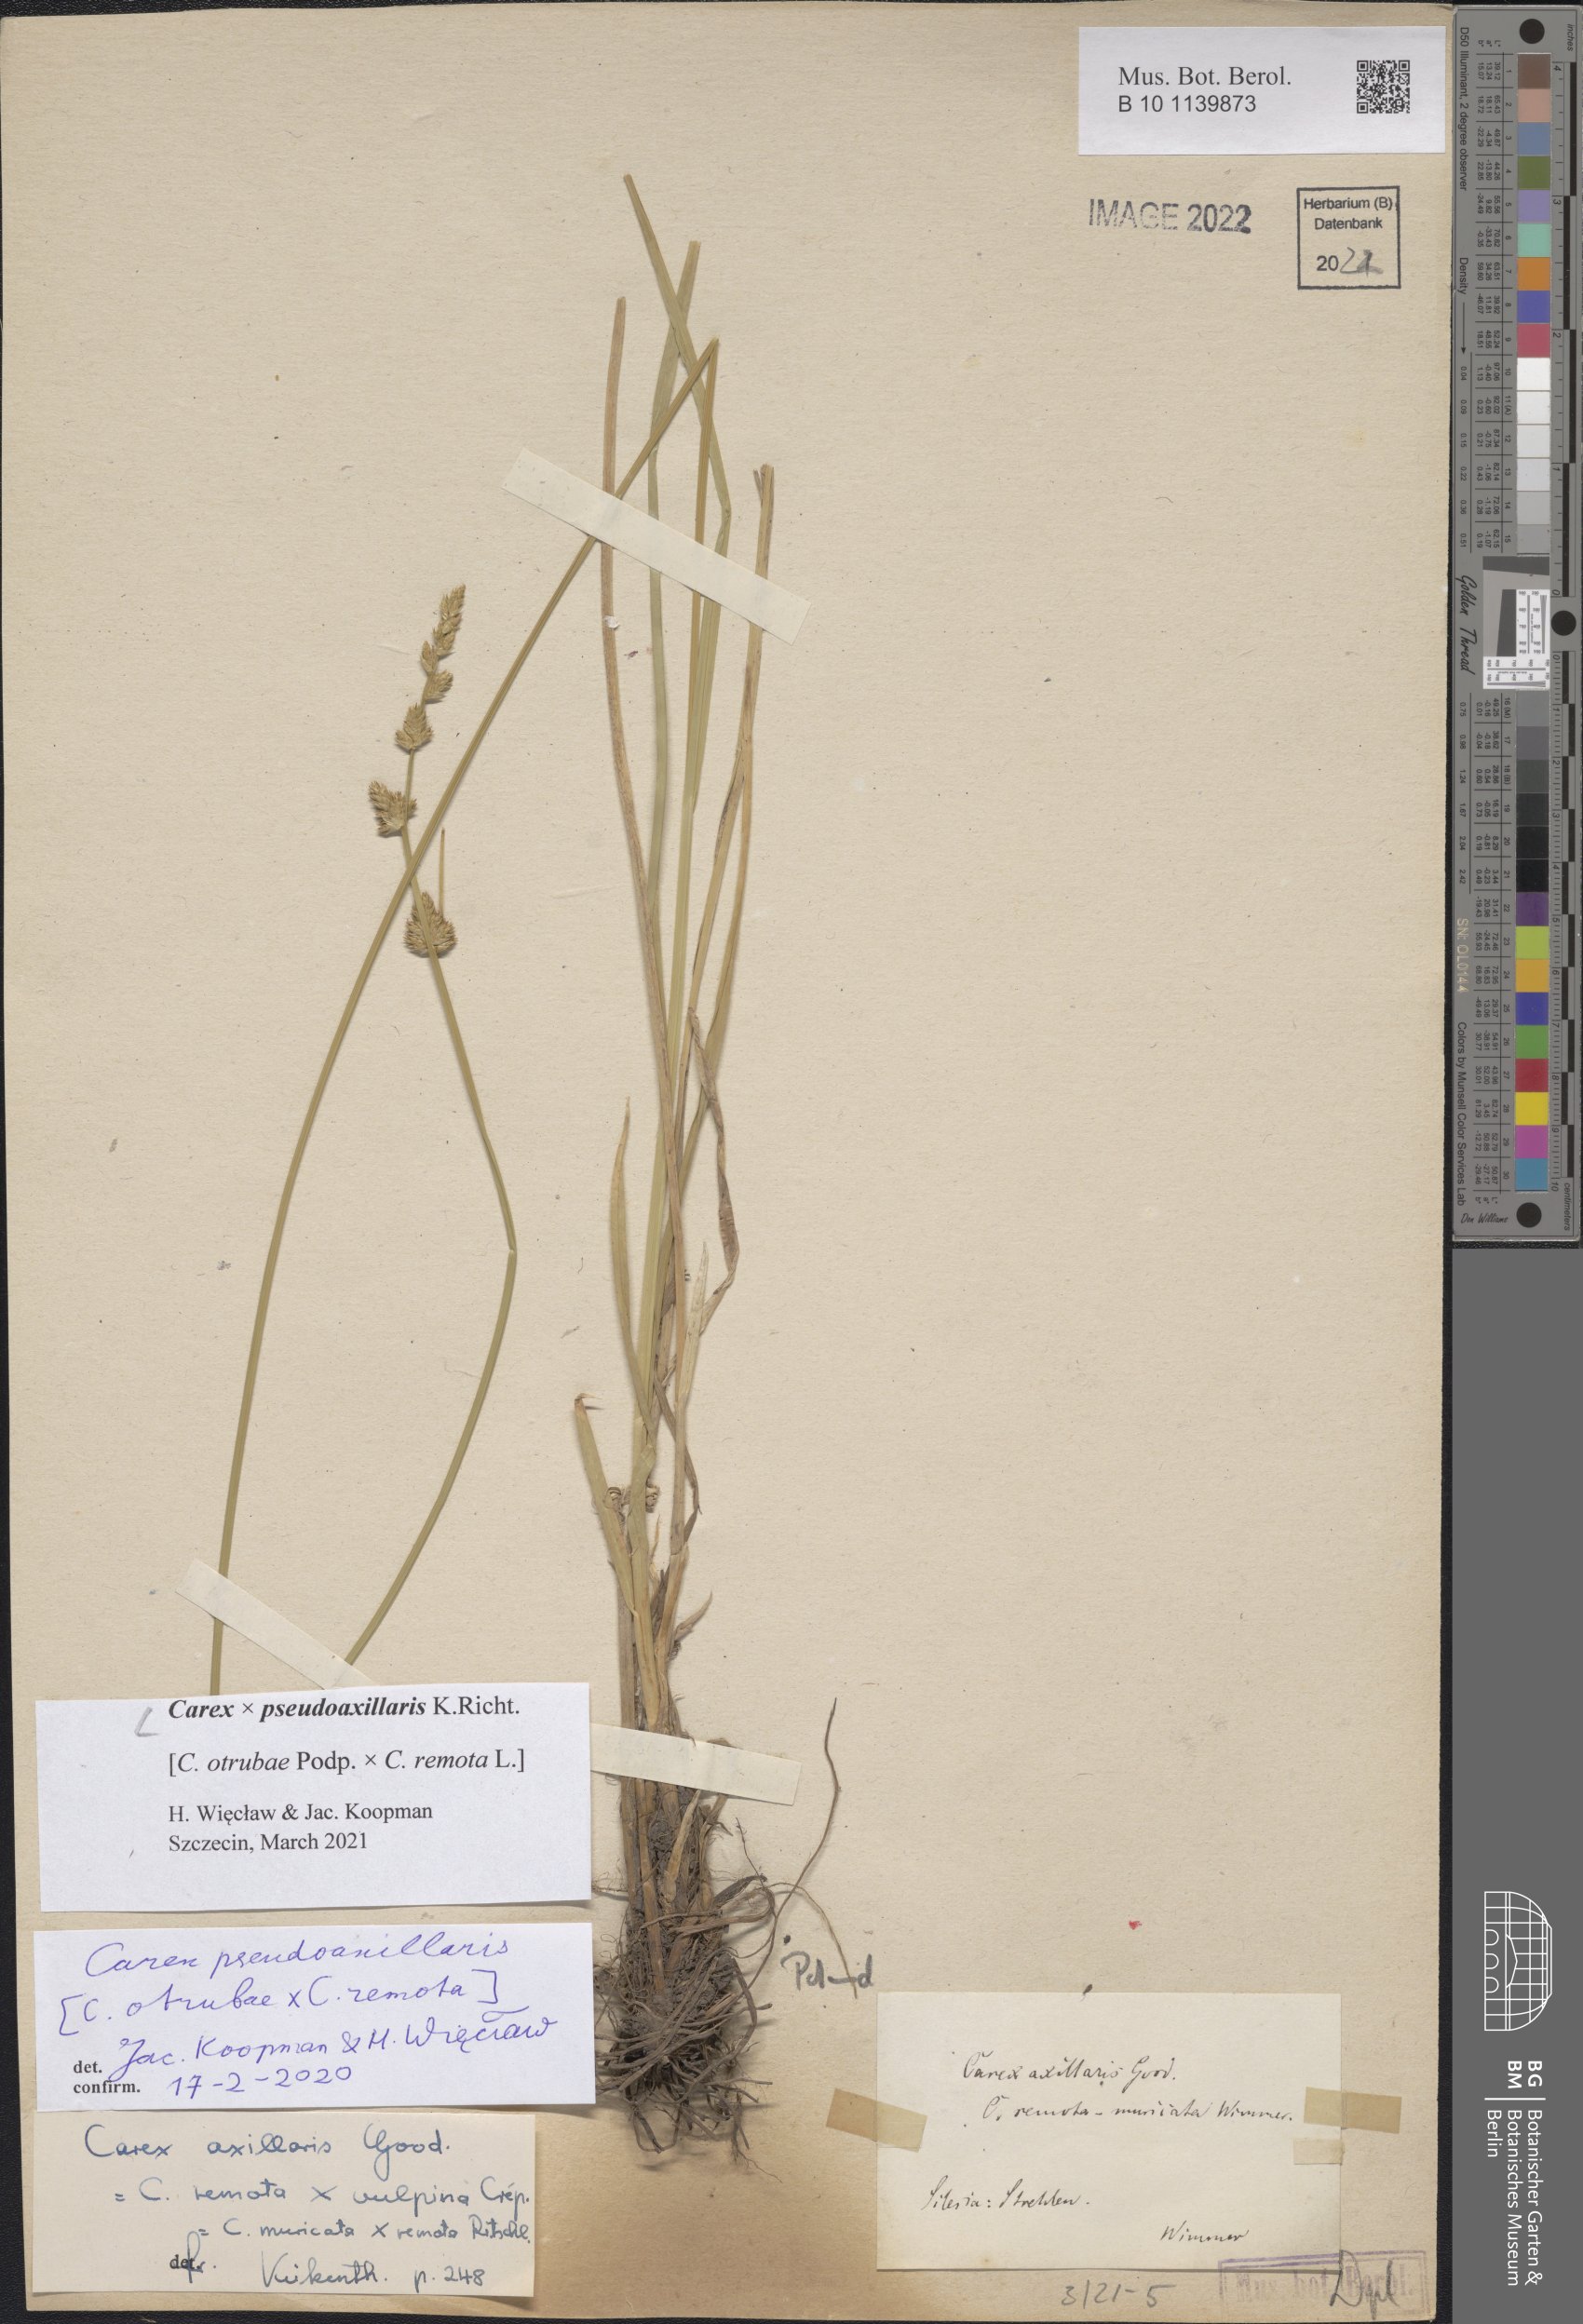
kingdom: Plantae
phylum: Tracheophyta
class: Liliopsida
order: Poales
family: Cyperaceae
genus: Carex
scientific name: Carex pseudoaxillaris
